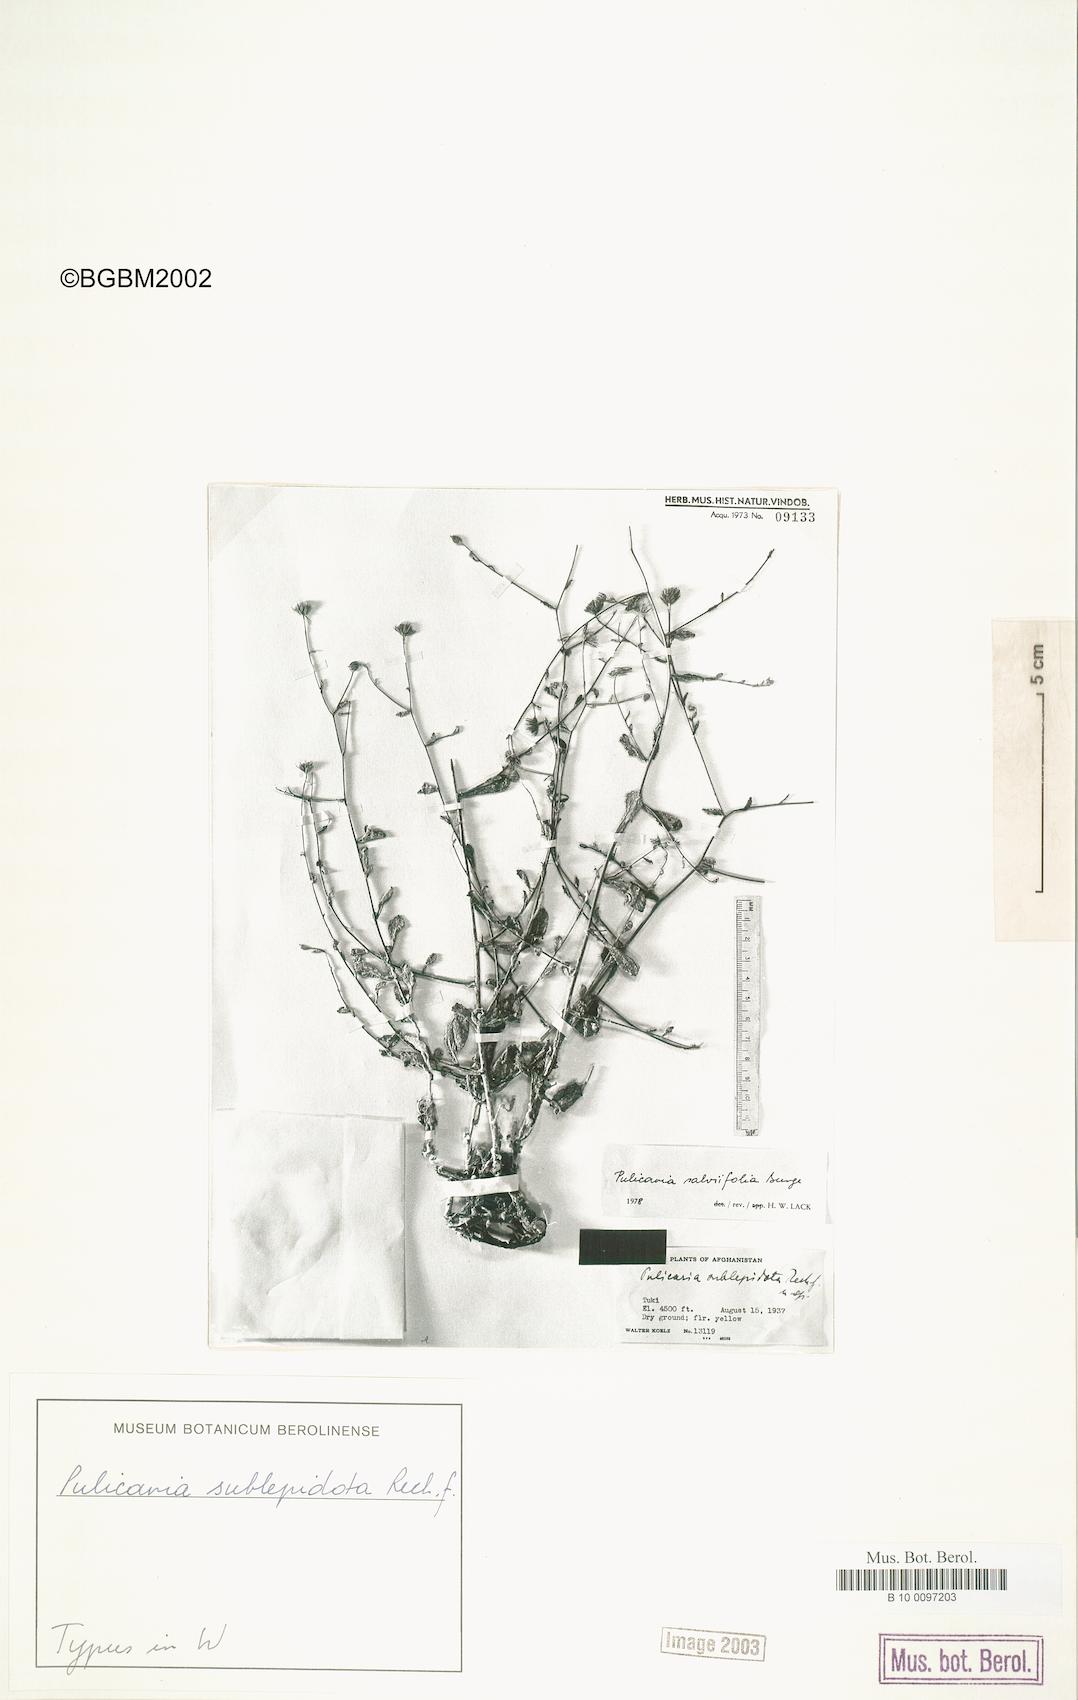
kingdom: Plantae
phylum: Tracheophyta
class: Magnoliopsida
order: Asterales
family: Asteraceae
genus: Pulicaria
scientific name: Pulicaria salviifolia
